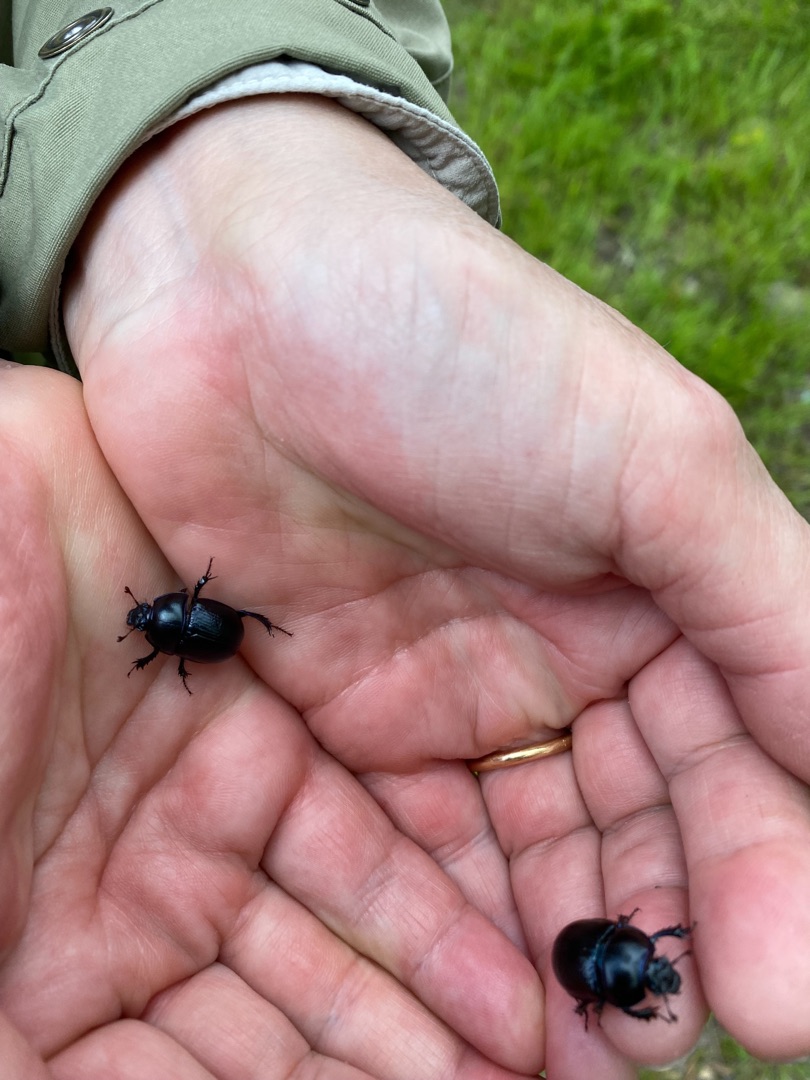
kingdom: Animalia
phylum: Arthropoda
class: Insecta
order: Coleoptera
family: Geotrupidae
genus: Anoplotrupes
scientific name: Anoplotrupes stercorosus
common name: Skovskarnbasse
